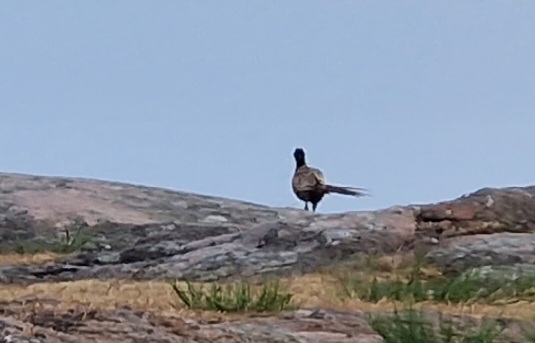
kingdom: Animalia
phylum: Chordata
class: Aves
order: Galliformes
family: Phasianidae
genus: Phasianus
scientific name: Phasianus colchicus
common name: Fasan
